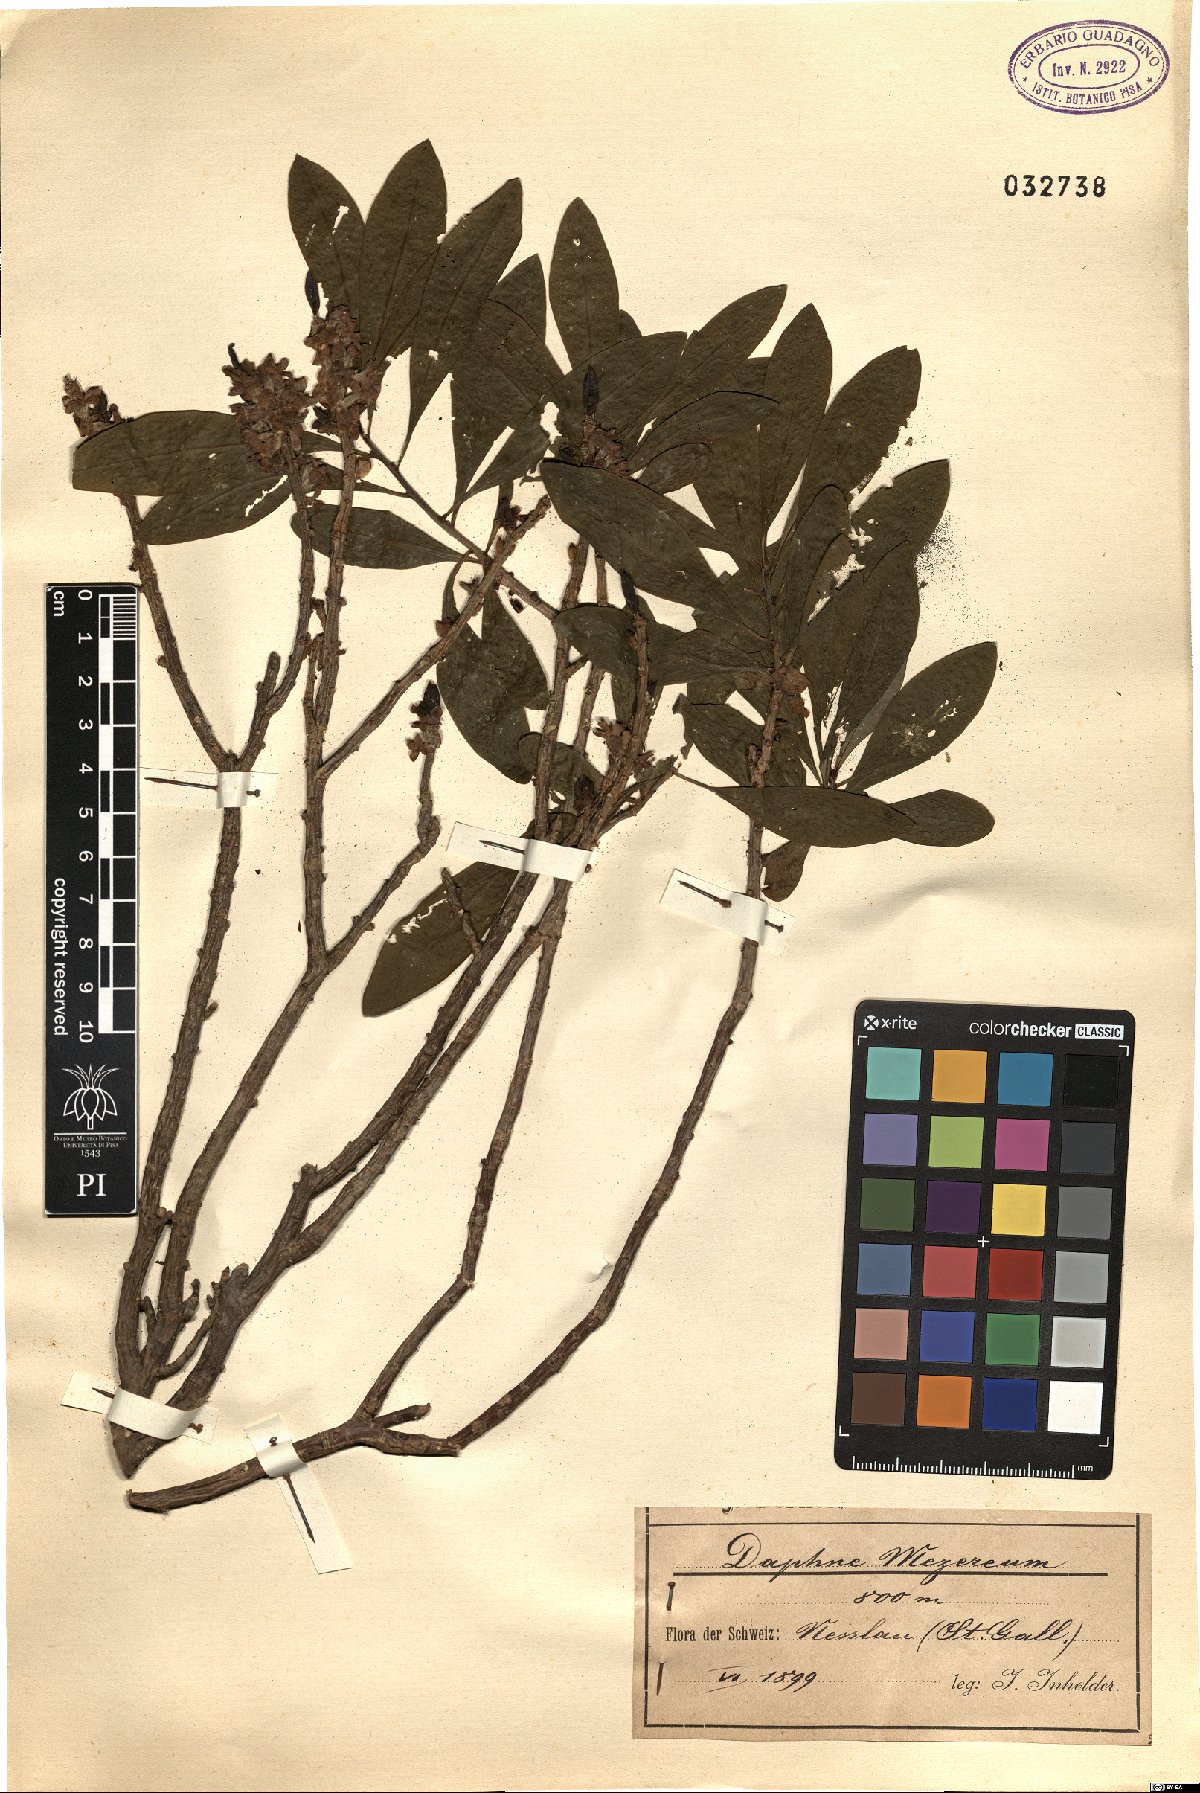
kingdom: Plantae
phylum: Tracheophyta
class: Magnoliopsida
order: Malvales
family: Thymelaeaceae
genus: Daphne
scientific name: Daphne laureola
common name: Spurge-laurel
